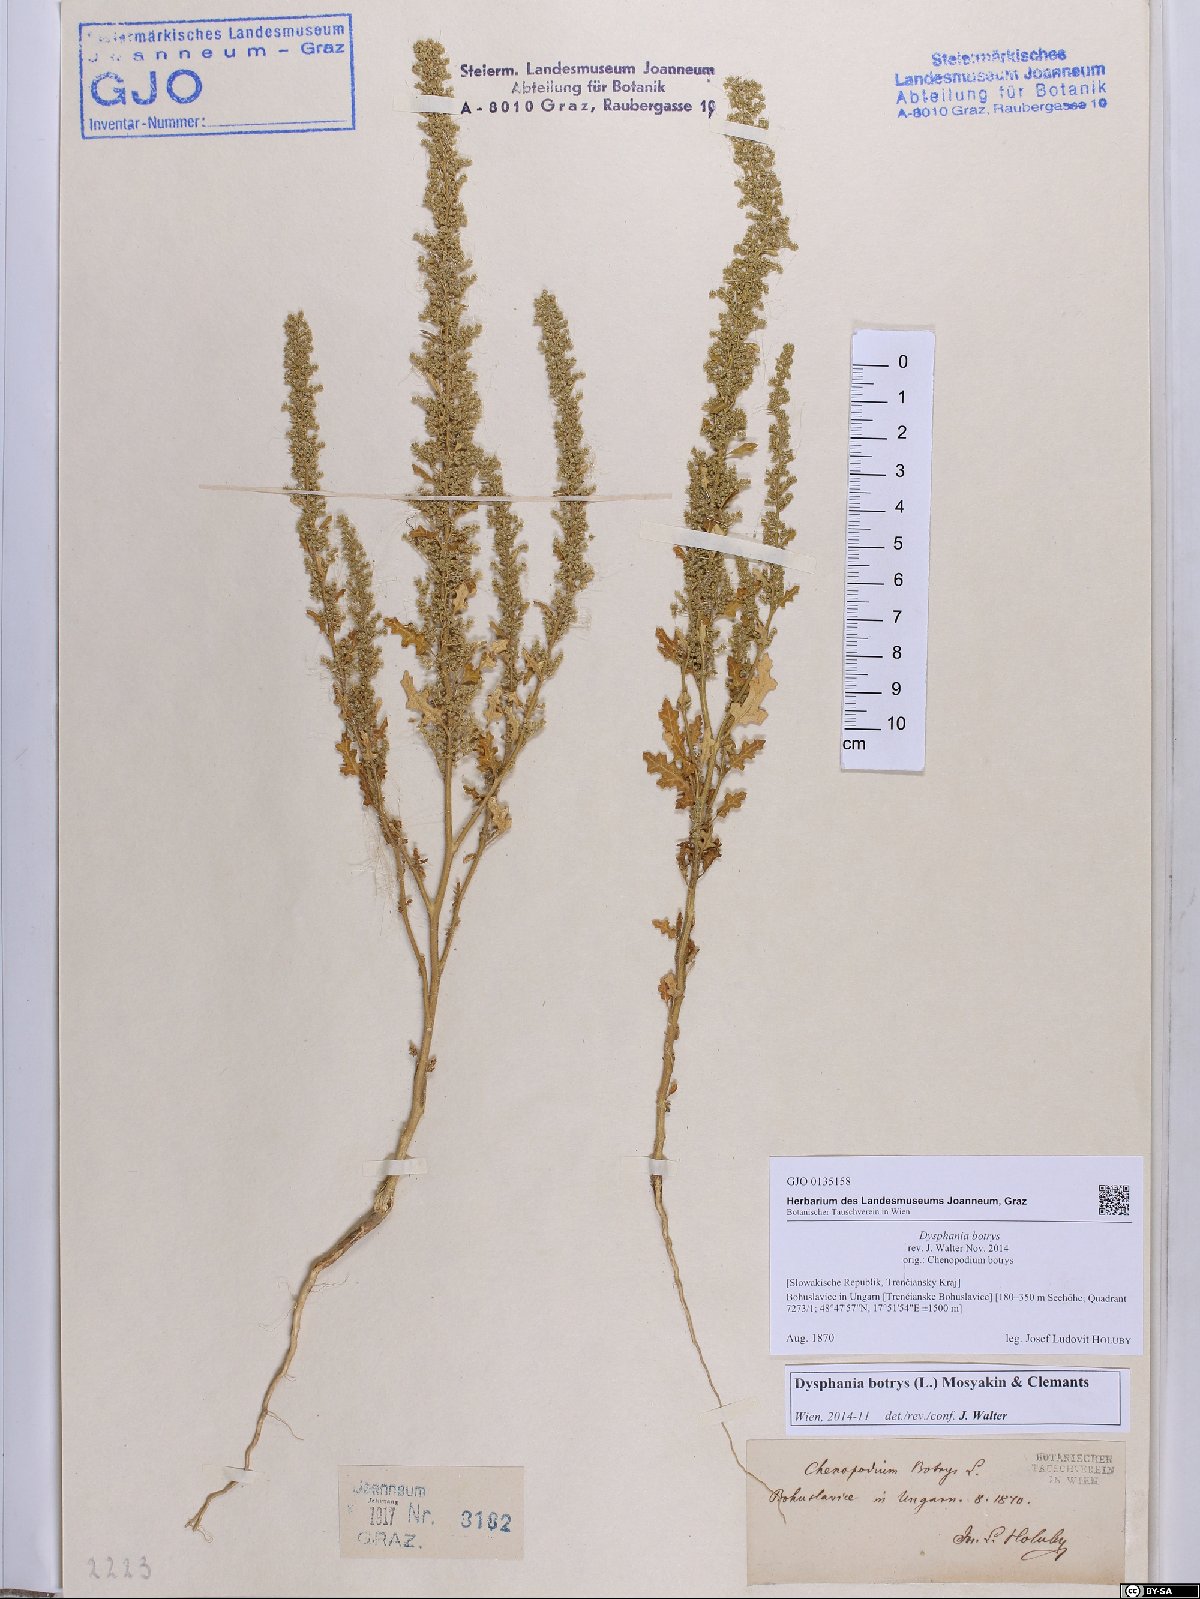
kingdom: Plantae
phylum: Tracheophyta
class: Magnoliopsida
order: Caryophyllales
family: Amaranthaceae
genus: Dysphania
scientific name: Dysphania botrys
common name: Feather-geranium
